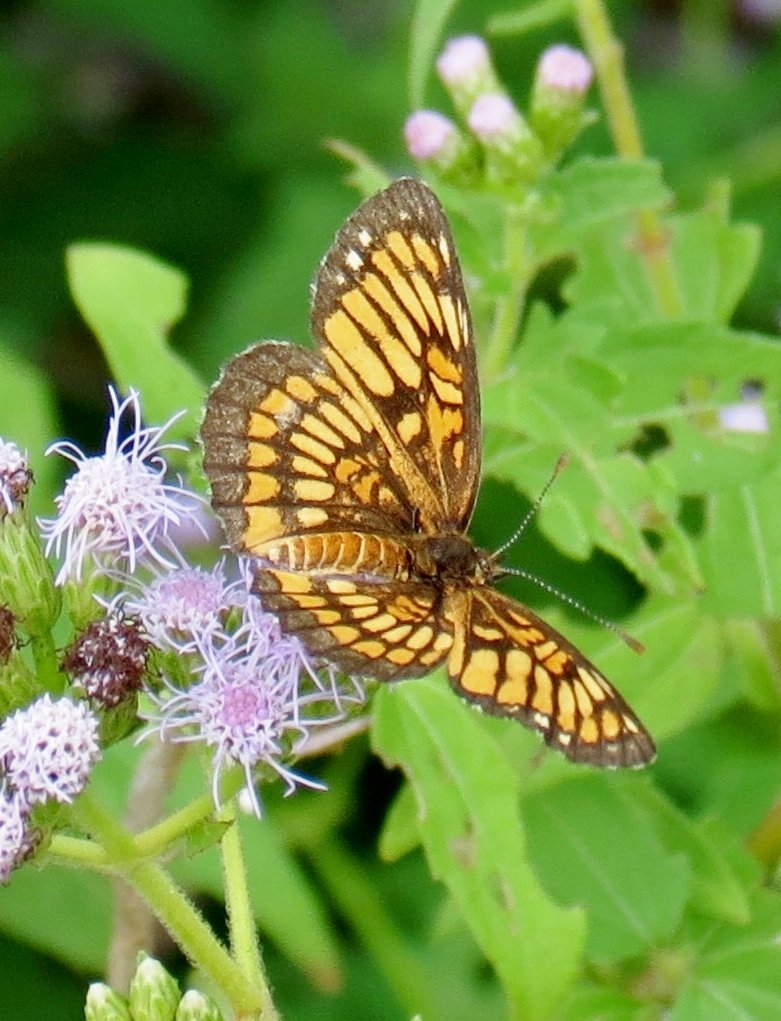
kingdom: Animalia
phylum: Arthropoda
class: Insecta
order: Lepidoptera
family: Nymphalidae
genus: Thessalia
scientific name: Thessalia theona
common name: Theona Checkerspot
